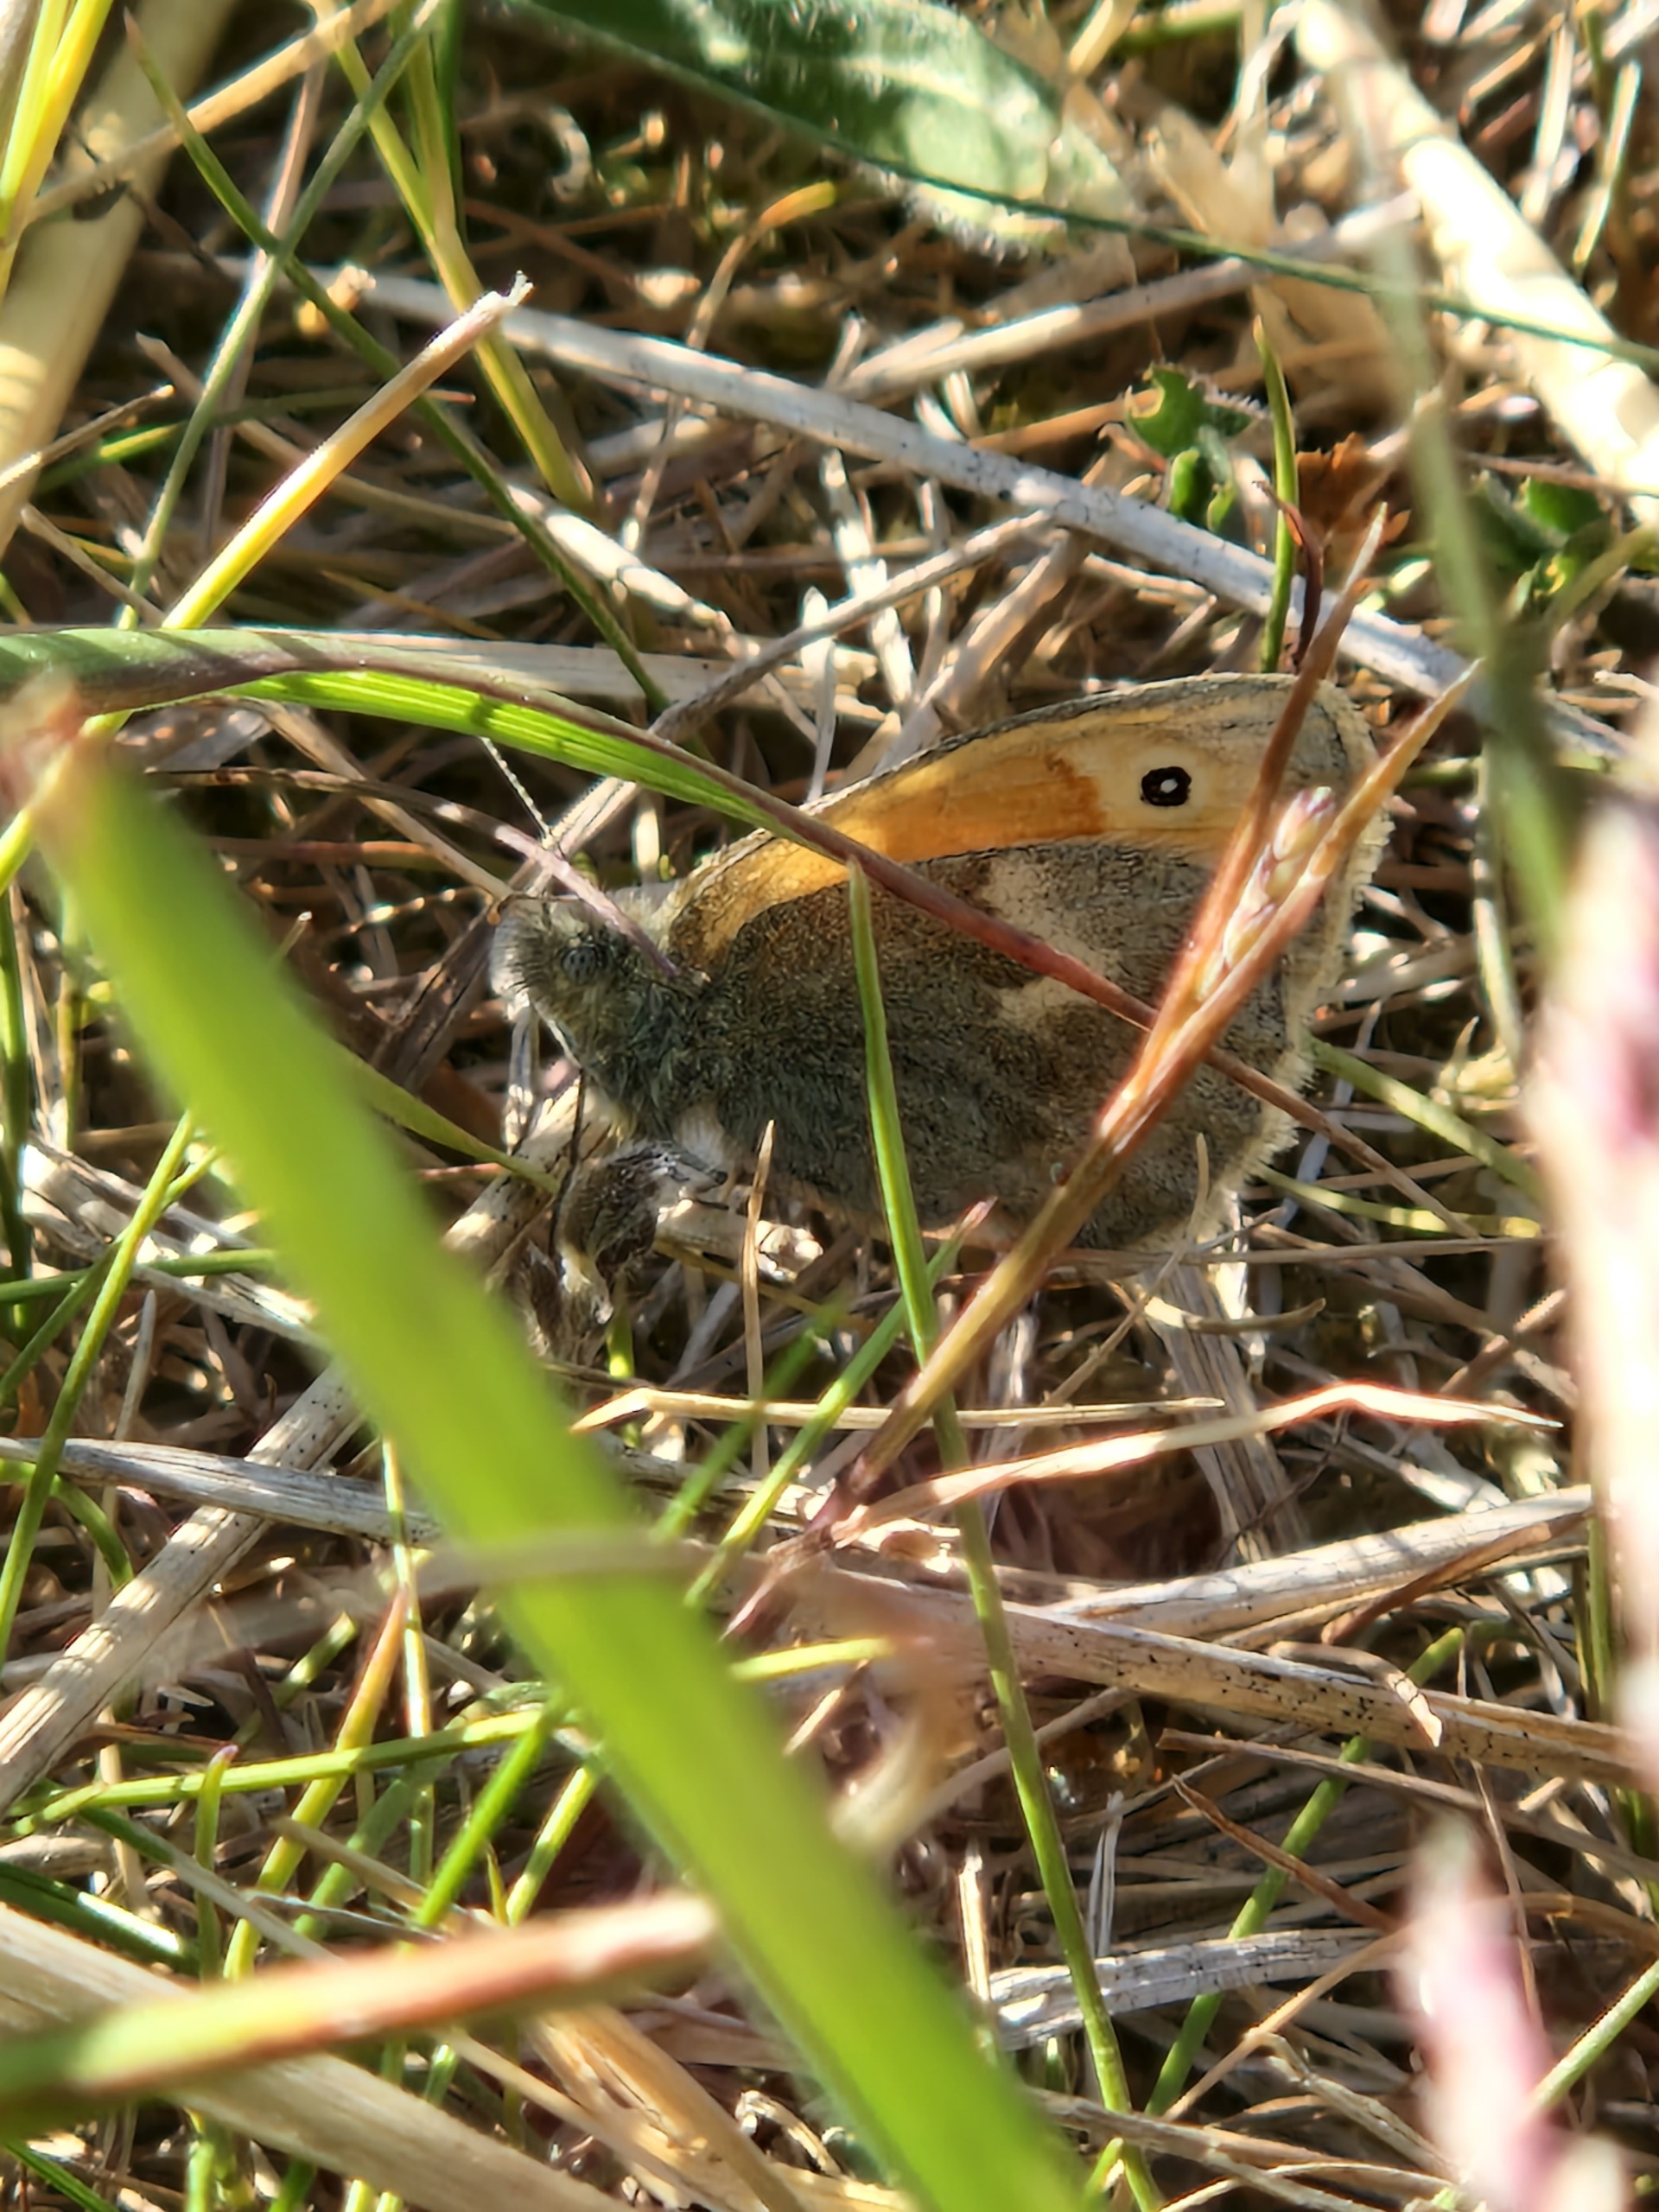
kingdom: Animalia
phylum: Arthropoda
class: Insecta
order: Lepidoptera
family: Nymphalidae
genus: Coenonympha
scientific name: Coenonympha pamphilus
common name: Okkergul randøje
